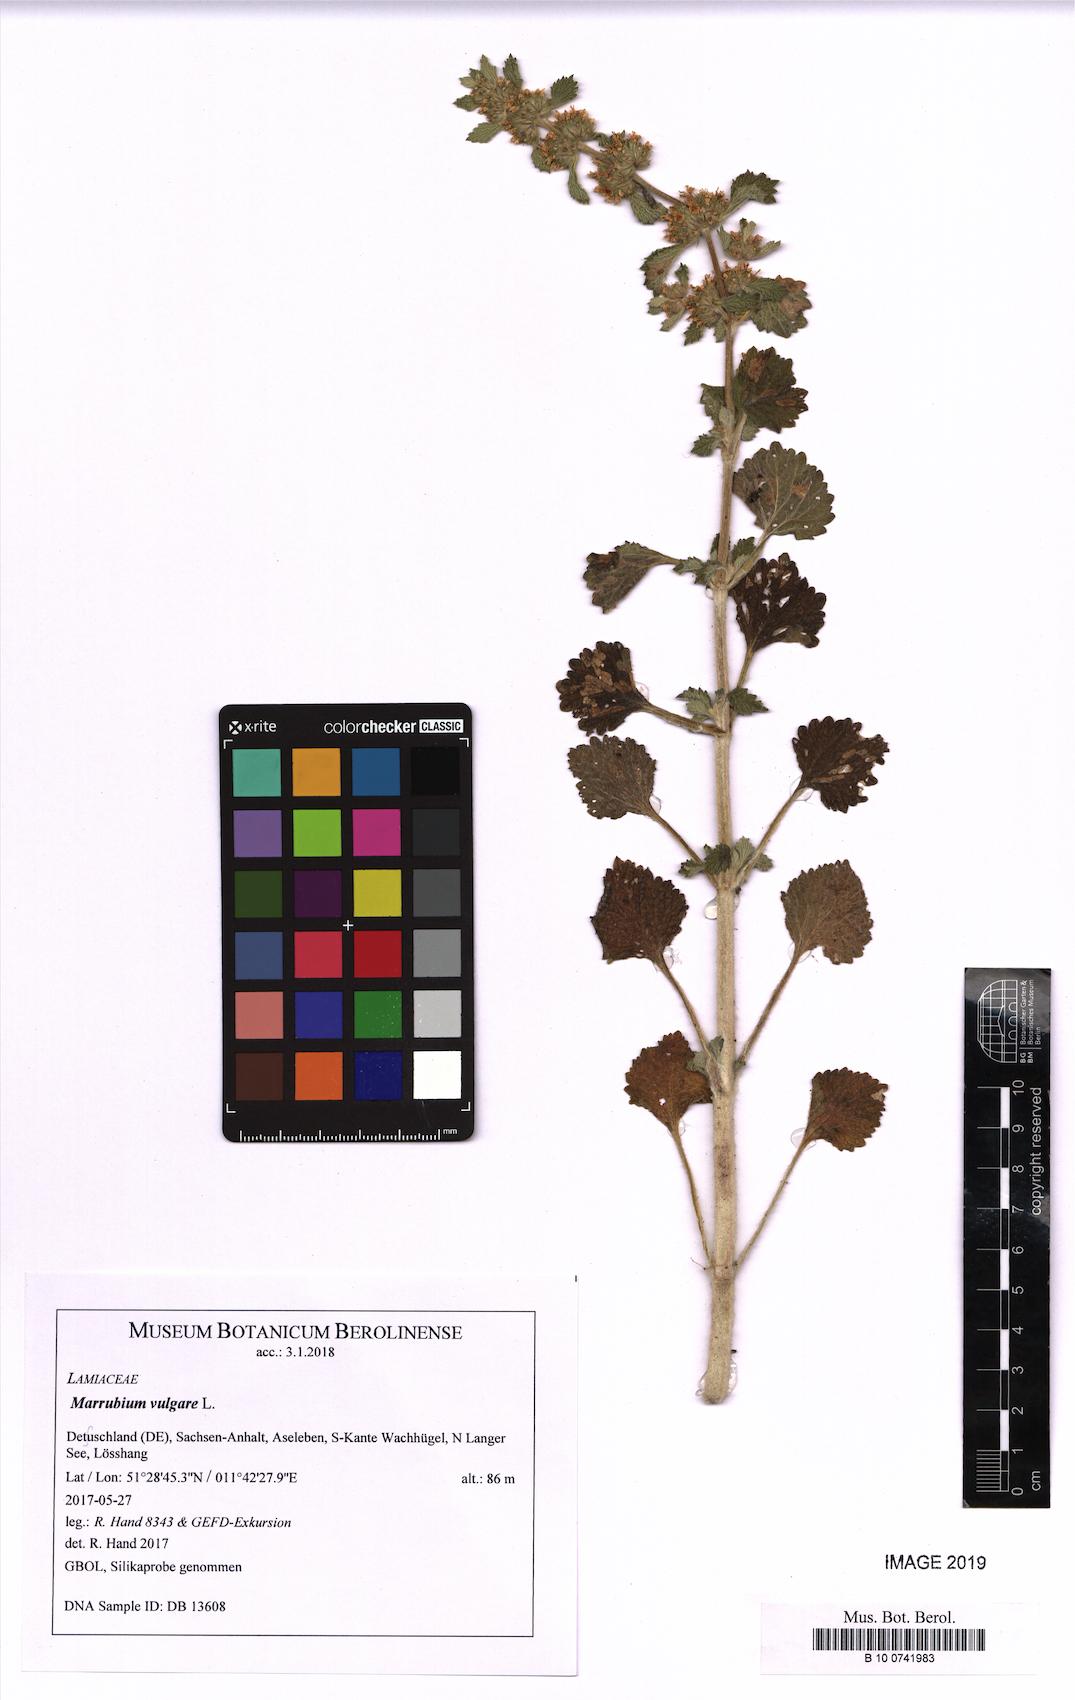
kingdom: Plantae
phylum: Tracheophyta
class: Magnoliopsida
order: Lamiales
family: Lamiaceae
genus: Marrubium
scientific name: Marrubium vulgare
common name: Horehound
